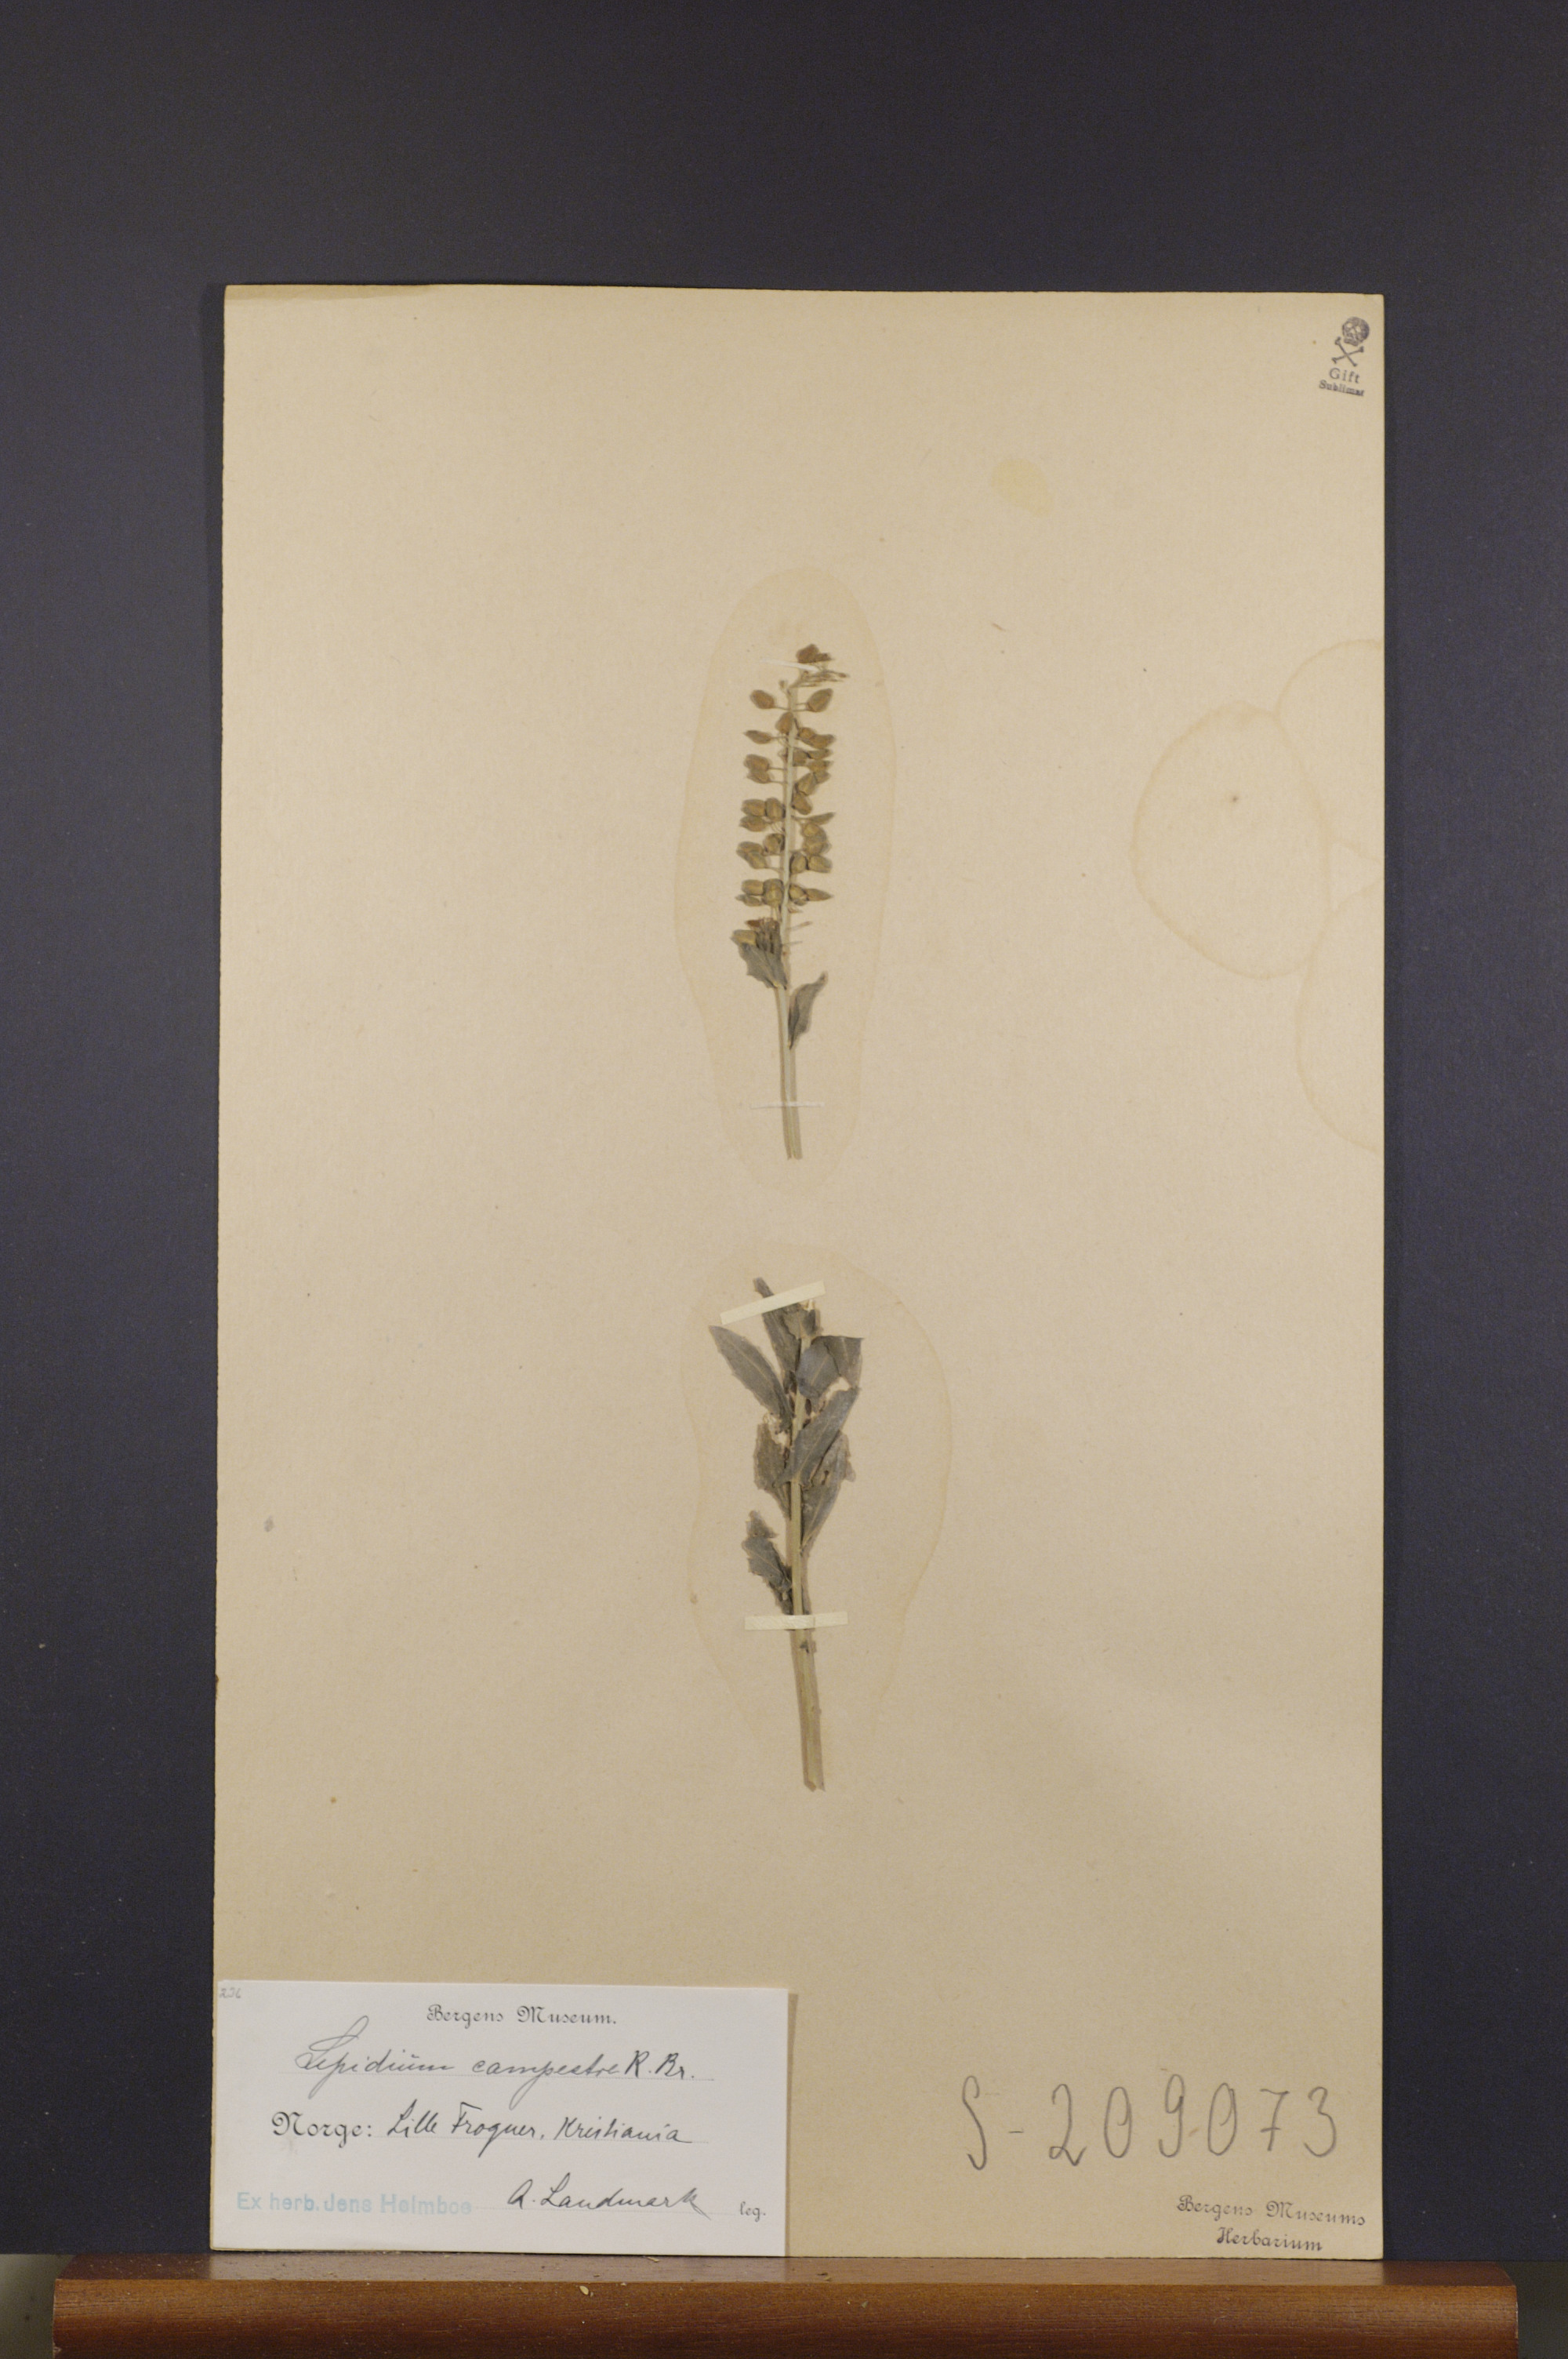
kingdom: Plantae
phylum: Tracheophyta
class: Magnoliopsida
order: Brassicales
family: Brassicaceae
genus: Lepidium
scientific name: Lepidium campestre
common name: Field pepperwort
